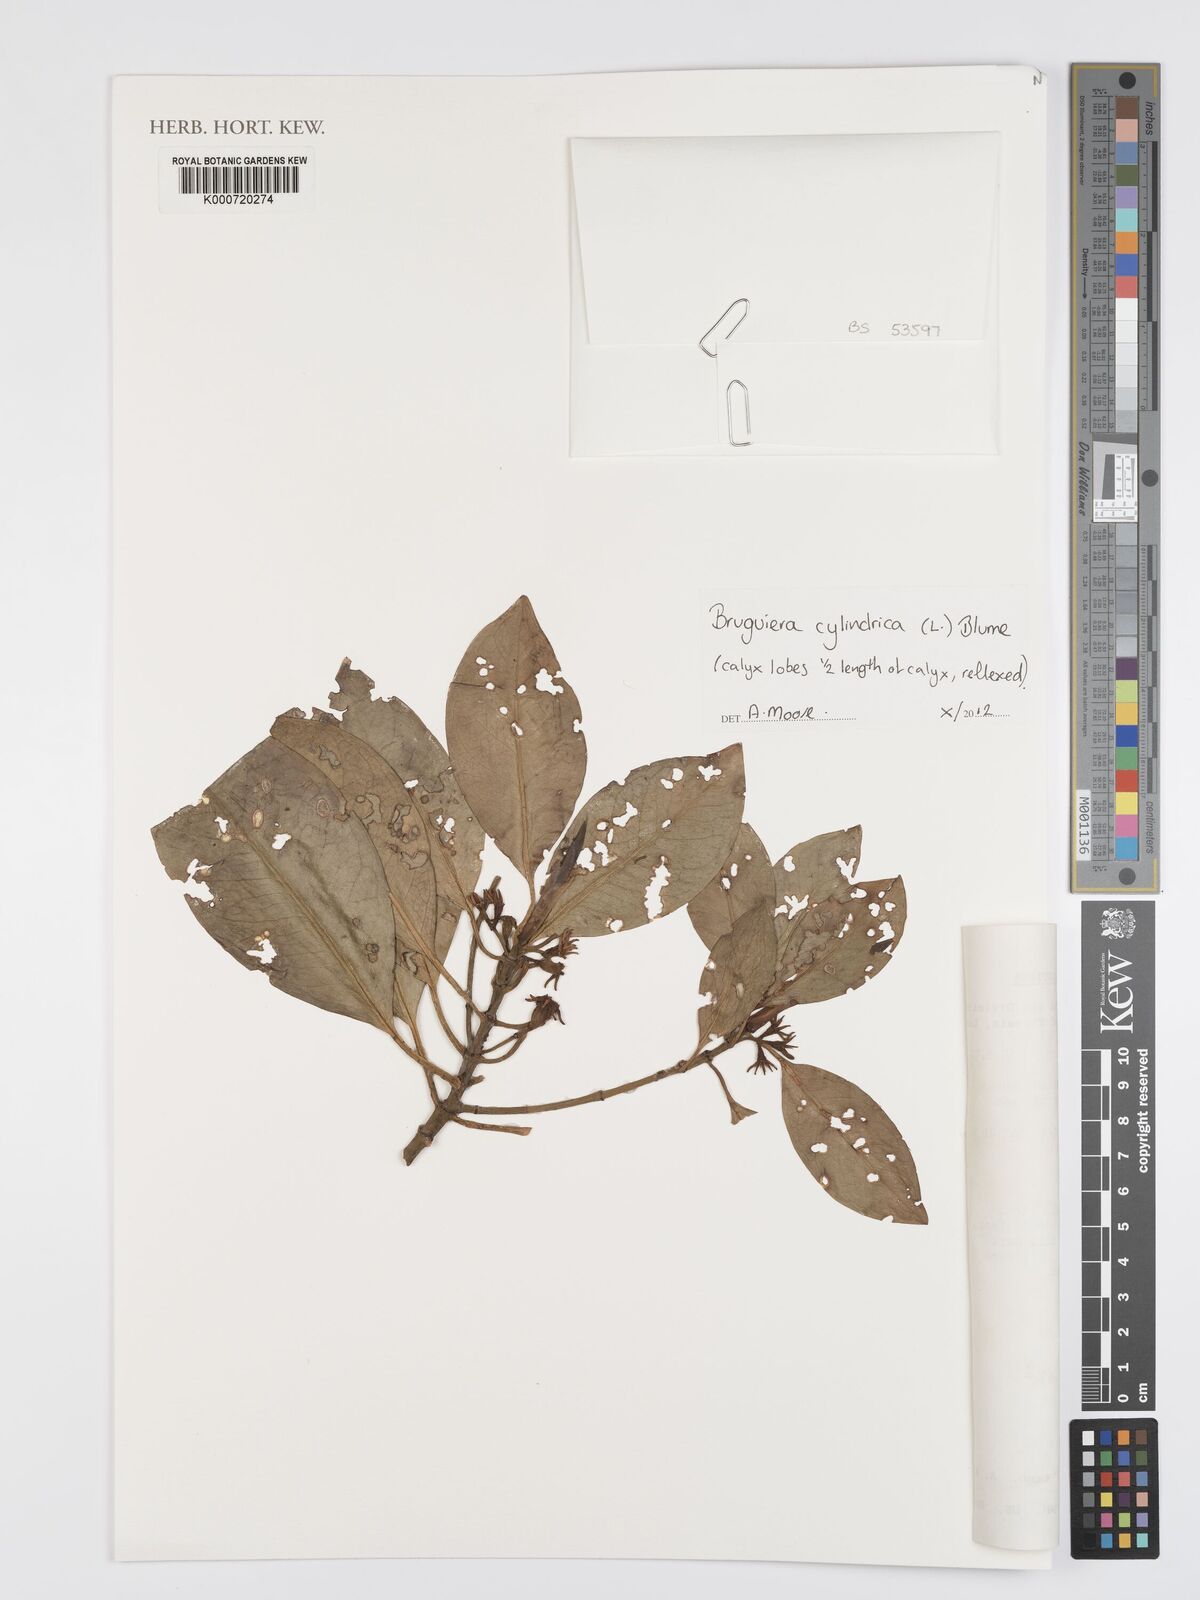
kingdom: Plantae
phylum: Tracheophyta
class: Magnoliopsida
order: Malpighiales
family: Rhizophoraceae
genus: Bruguiera
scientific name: Bruguiera cylindrica
